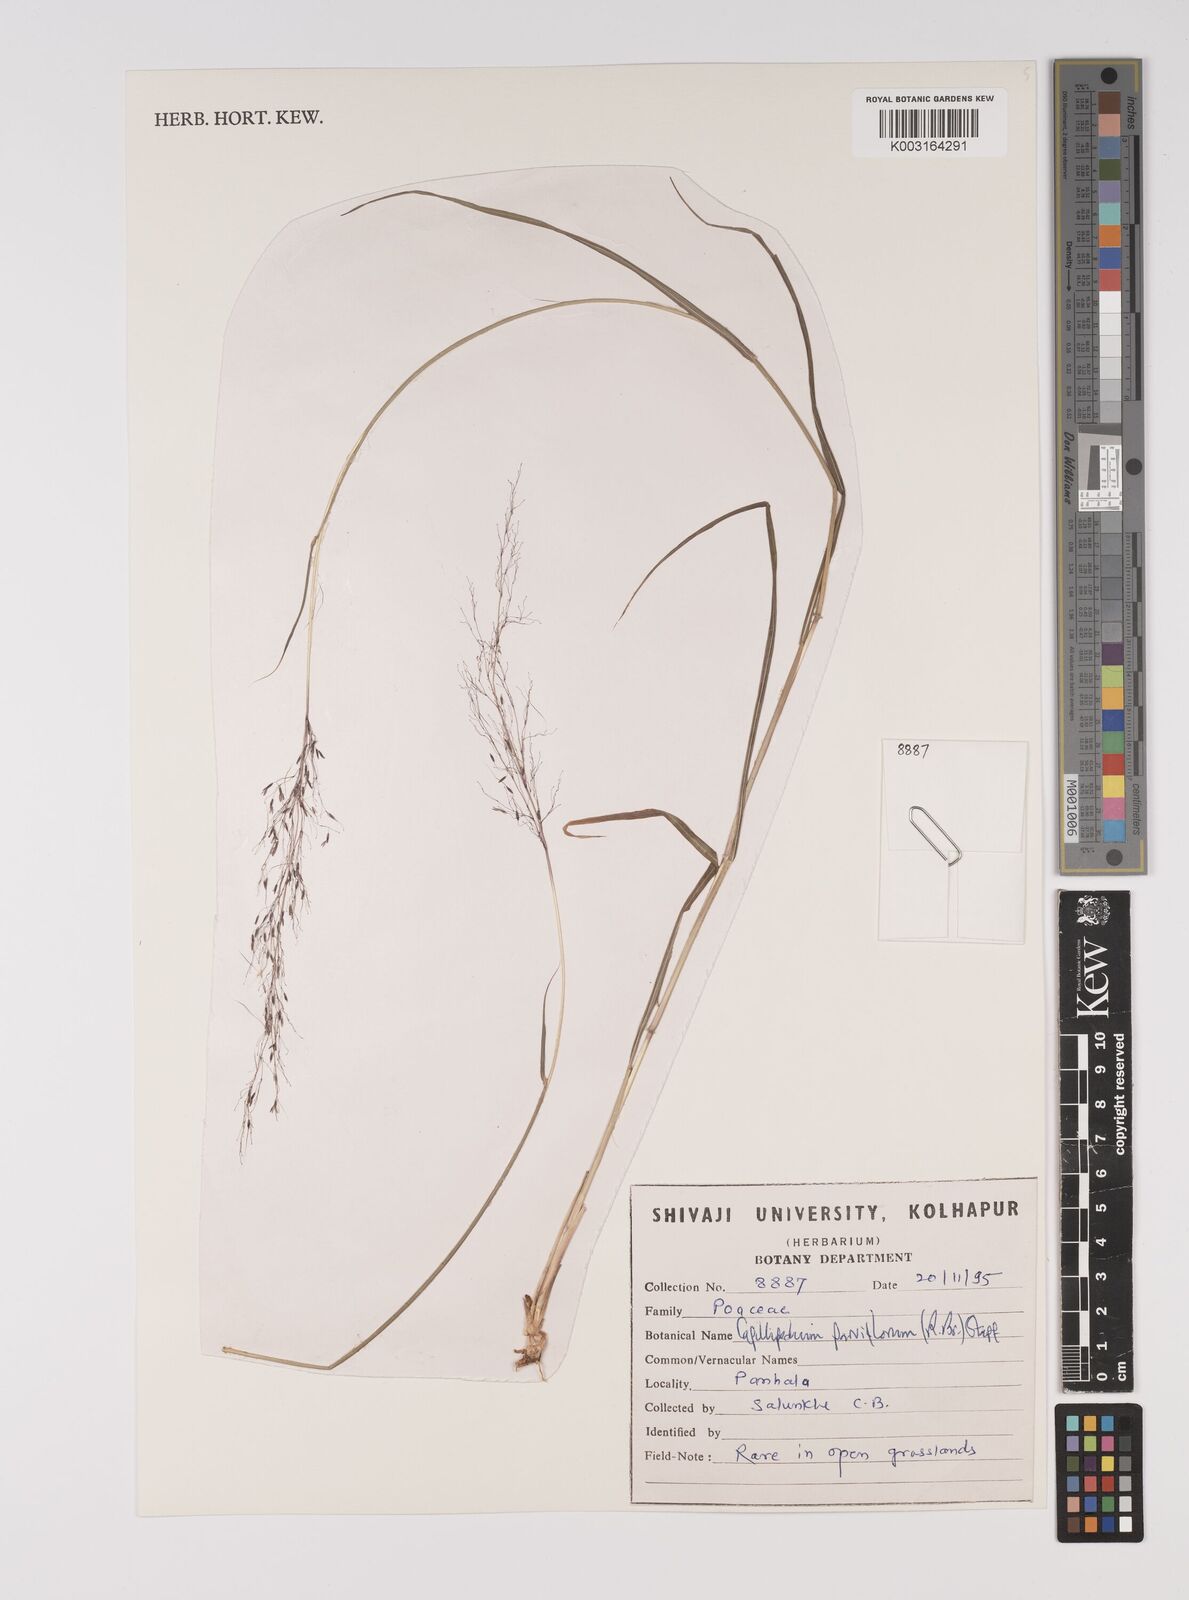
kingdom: Plantae
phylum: Tracheophyta
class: Liliopsida
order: Poales
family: Poaceae
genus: Capillipedium
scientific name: Capillipedium parviflorum
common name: Golden-beard
